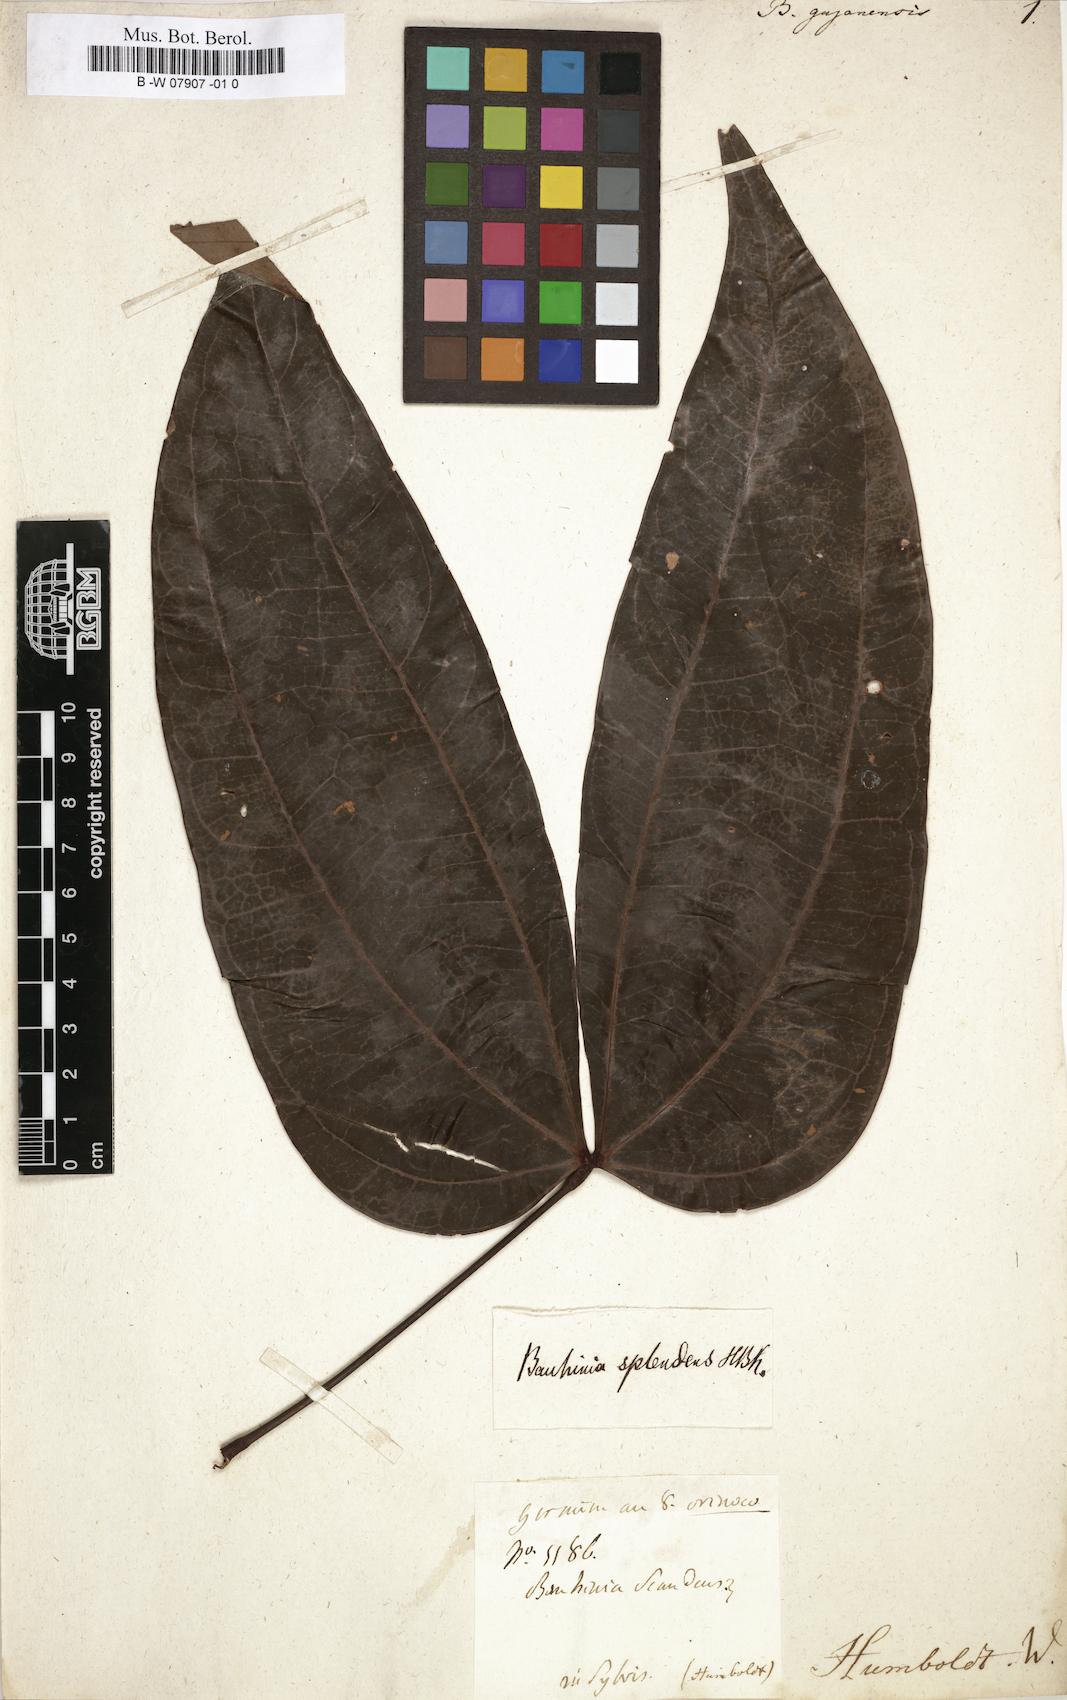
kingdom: Plantae
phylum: Tracheophyta
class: Magnoliopsida
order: Fabales
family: Fabaceae
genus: Schnella
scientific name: Schnella guianensis
